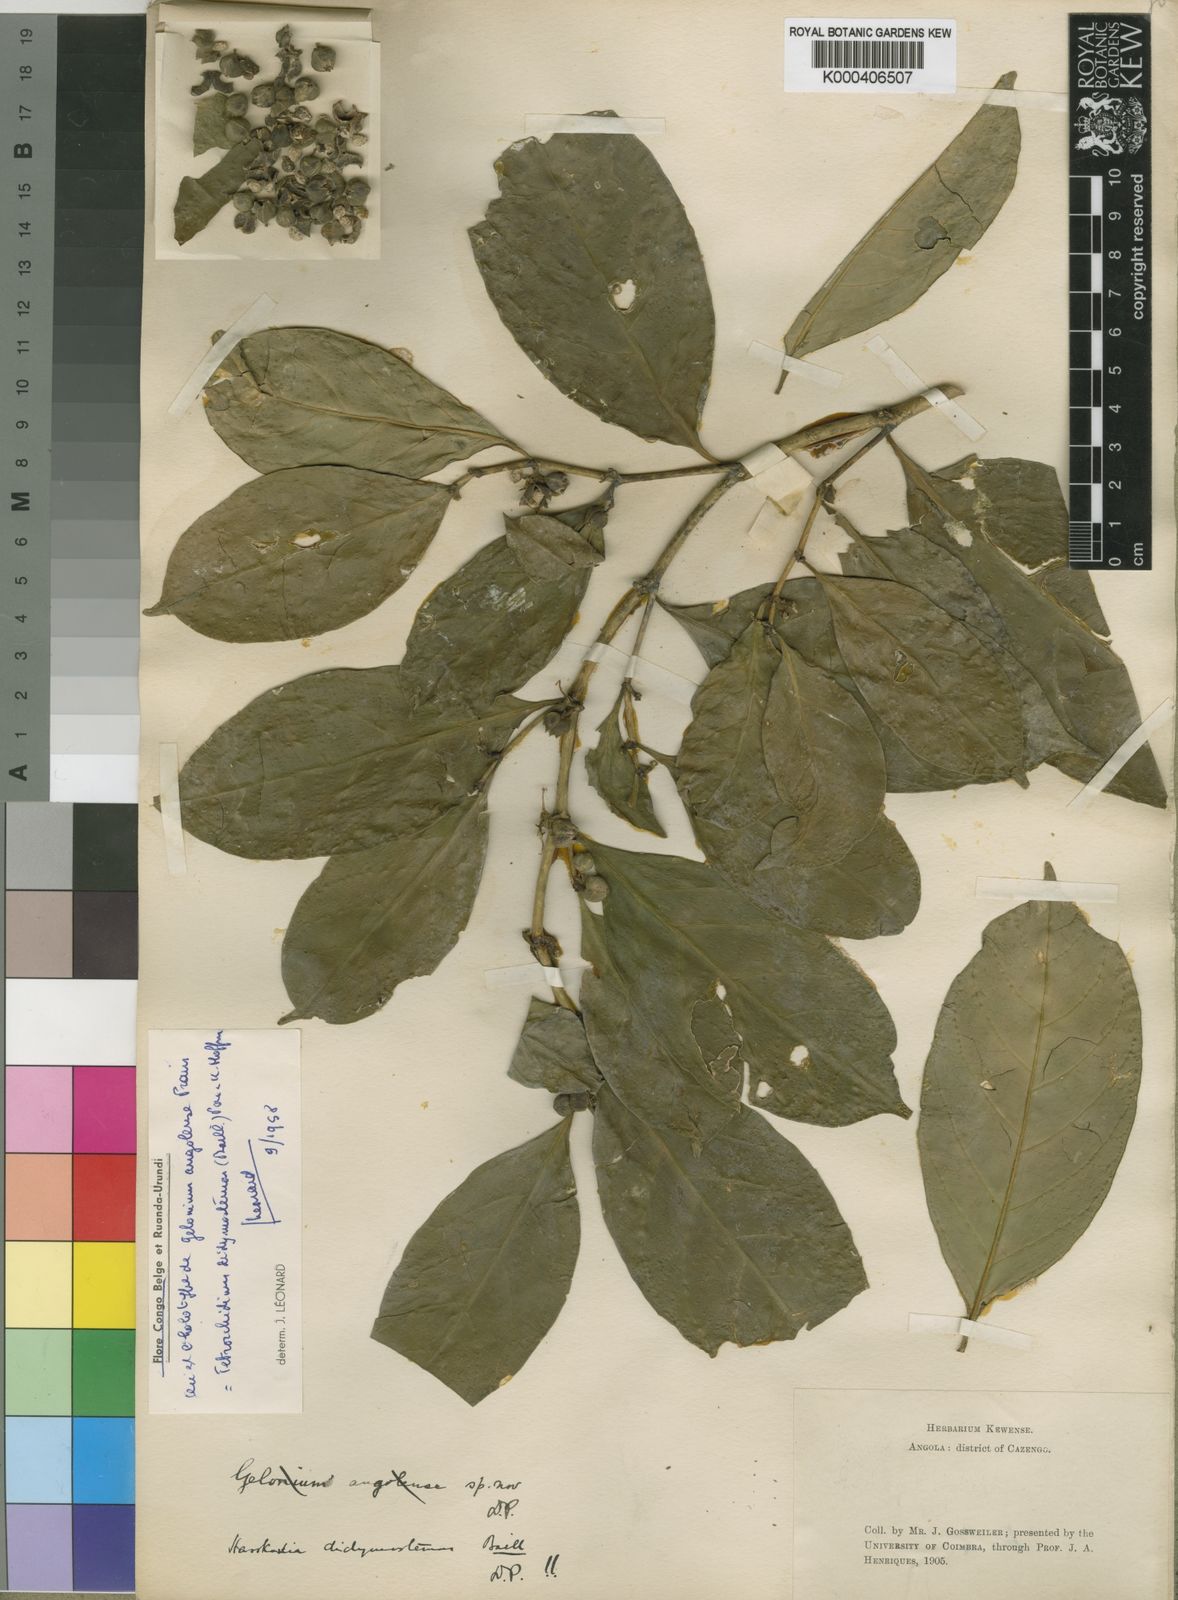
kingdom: Plantae
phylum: Tracheophyta
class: Magnoliopsida
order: Malpighiales
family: Euphorbiaceae
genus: Tetrorchidium
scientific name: Tetrorchidium didymostemon
